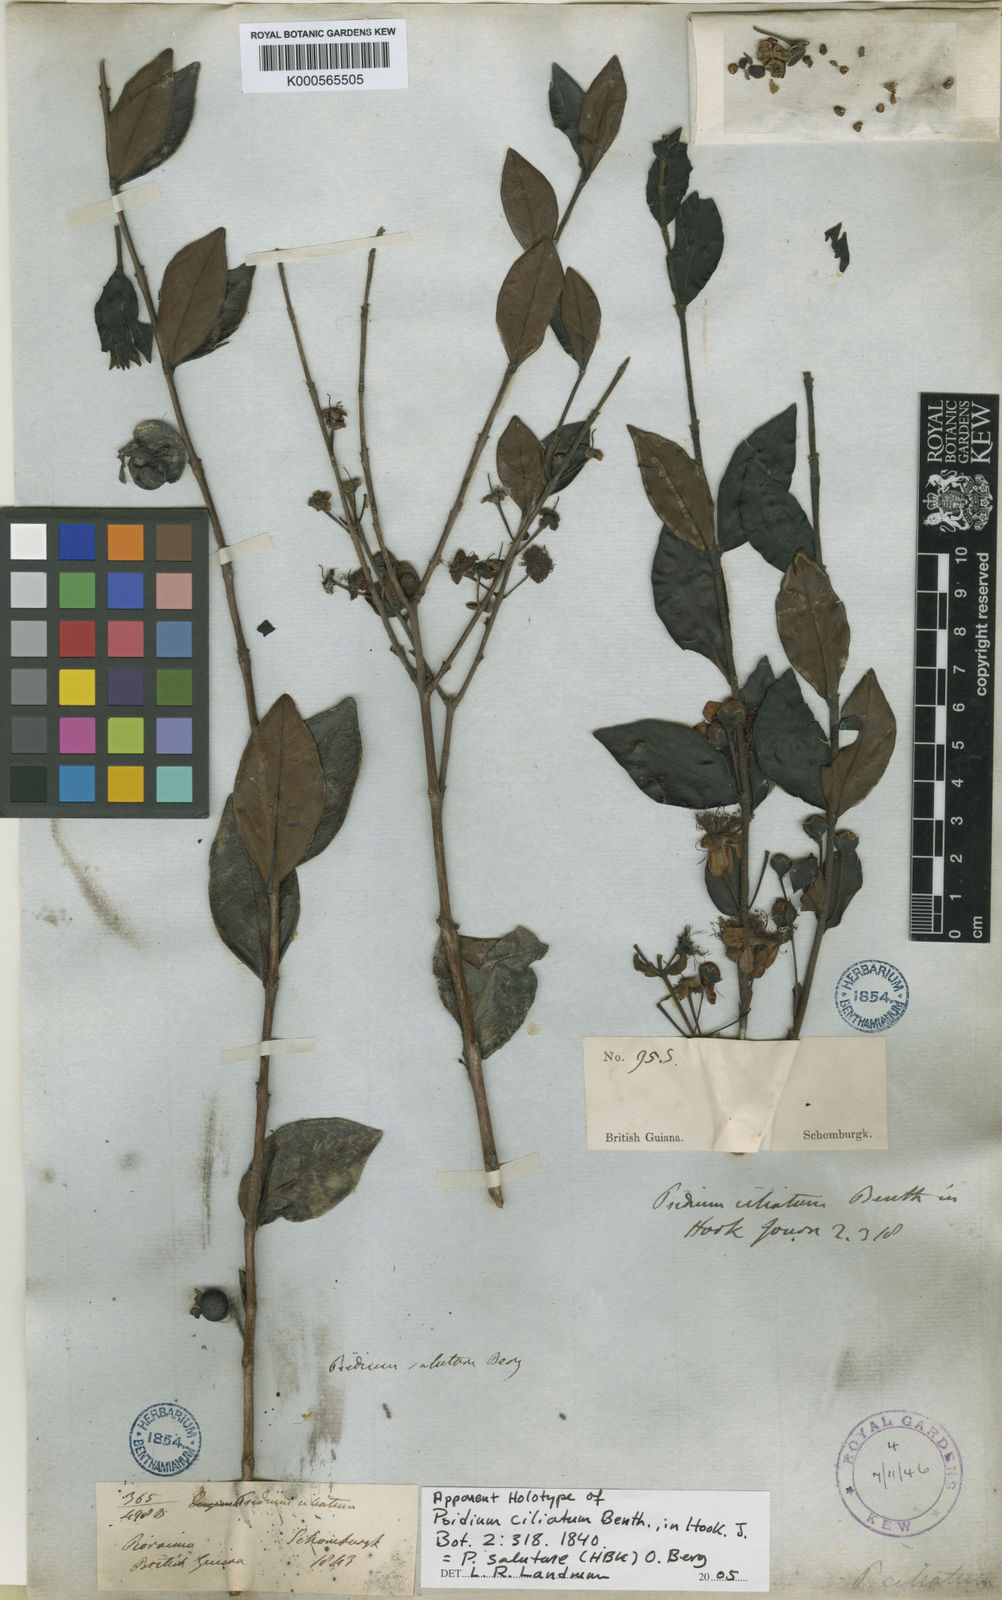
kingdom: Plantae
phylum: Tracheophyta
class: Magnoliopsida
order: Myrtales
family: Myrtaceae
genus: Psidium
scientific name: Psidium salutare
